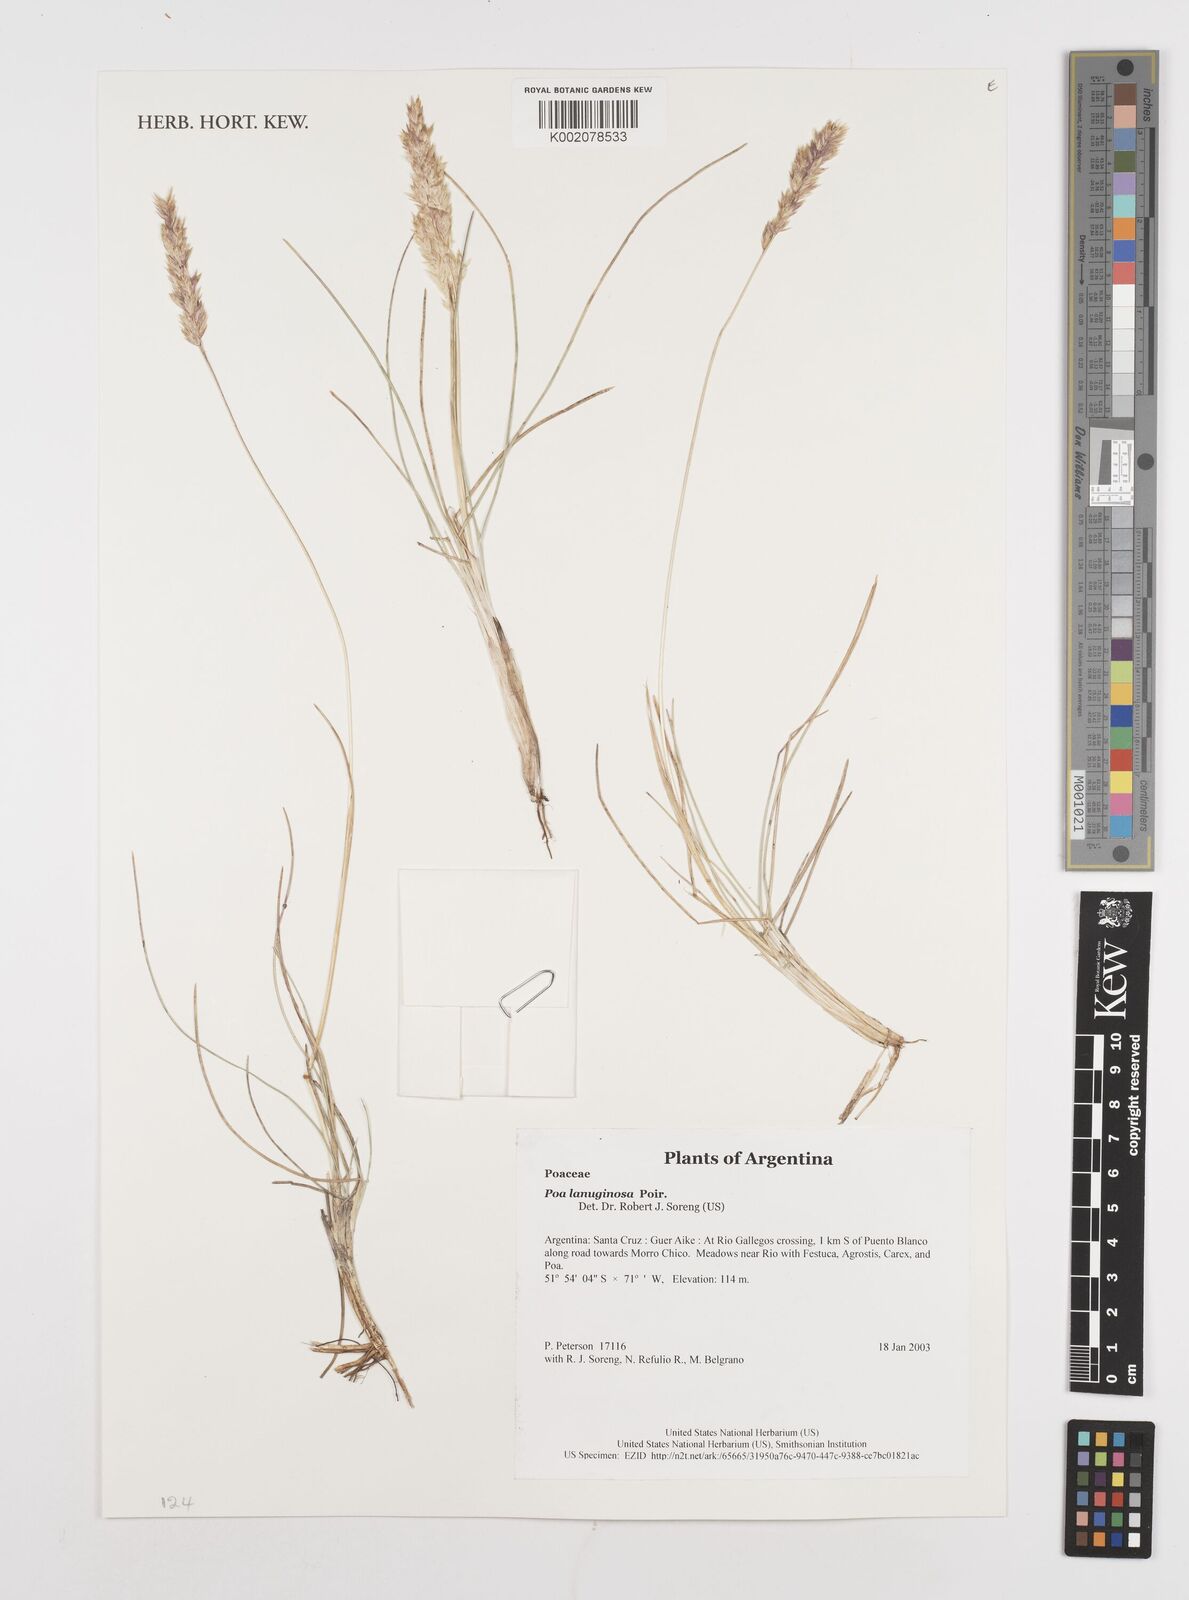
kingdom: Plantae
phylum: Tracheophyta
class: Liliopsida
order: Poales
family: Poaceae
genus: Poa
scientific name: Poa lanuginosa
